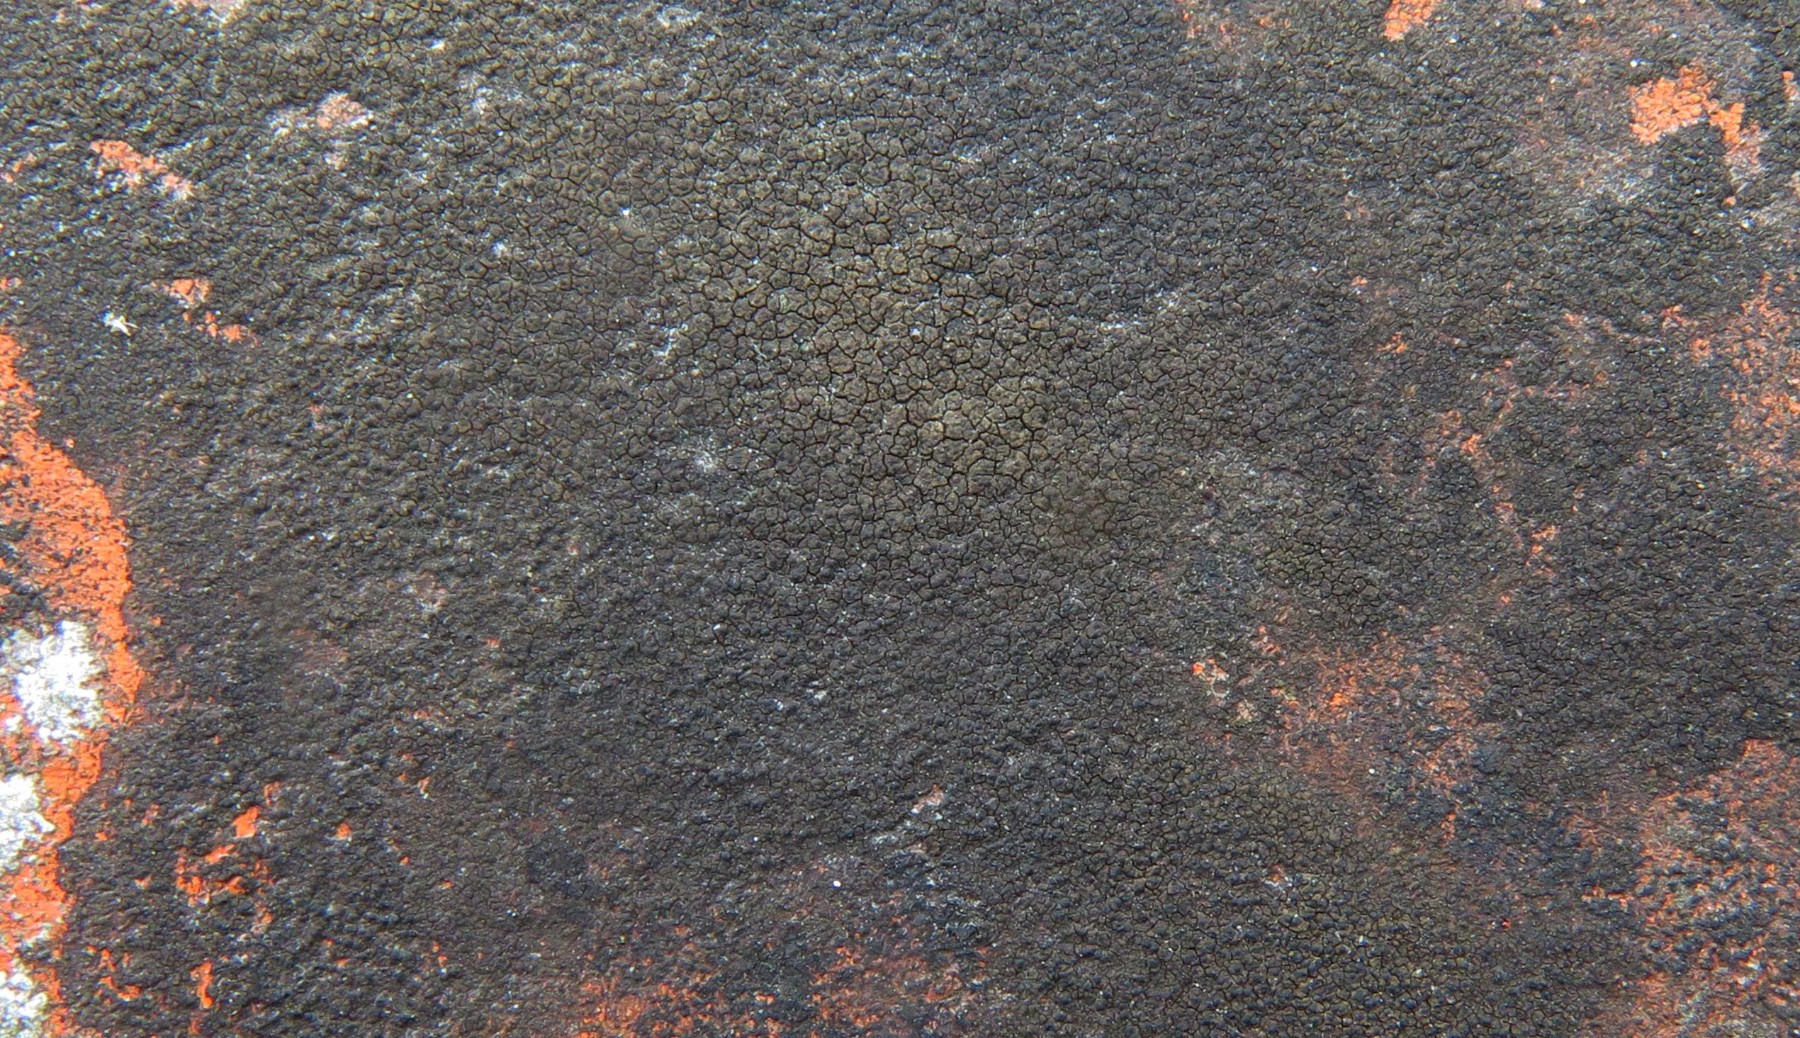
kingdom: Fungi
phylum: Ascomycota
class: Eurotiomycetes
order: Verrucariales
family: Verrucariaceae
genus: Verrucaria
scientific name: Verrucaria nigrescens
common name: sortbrun vortelav
